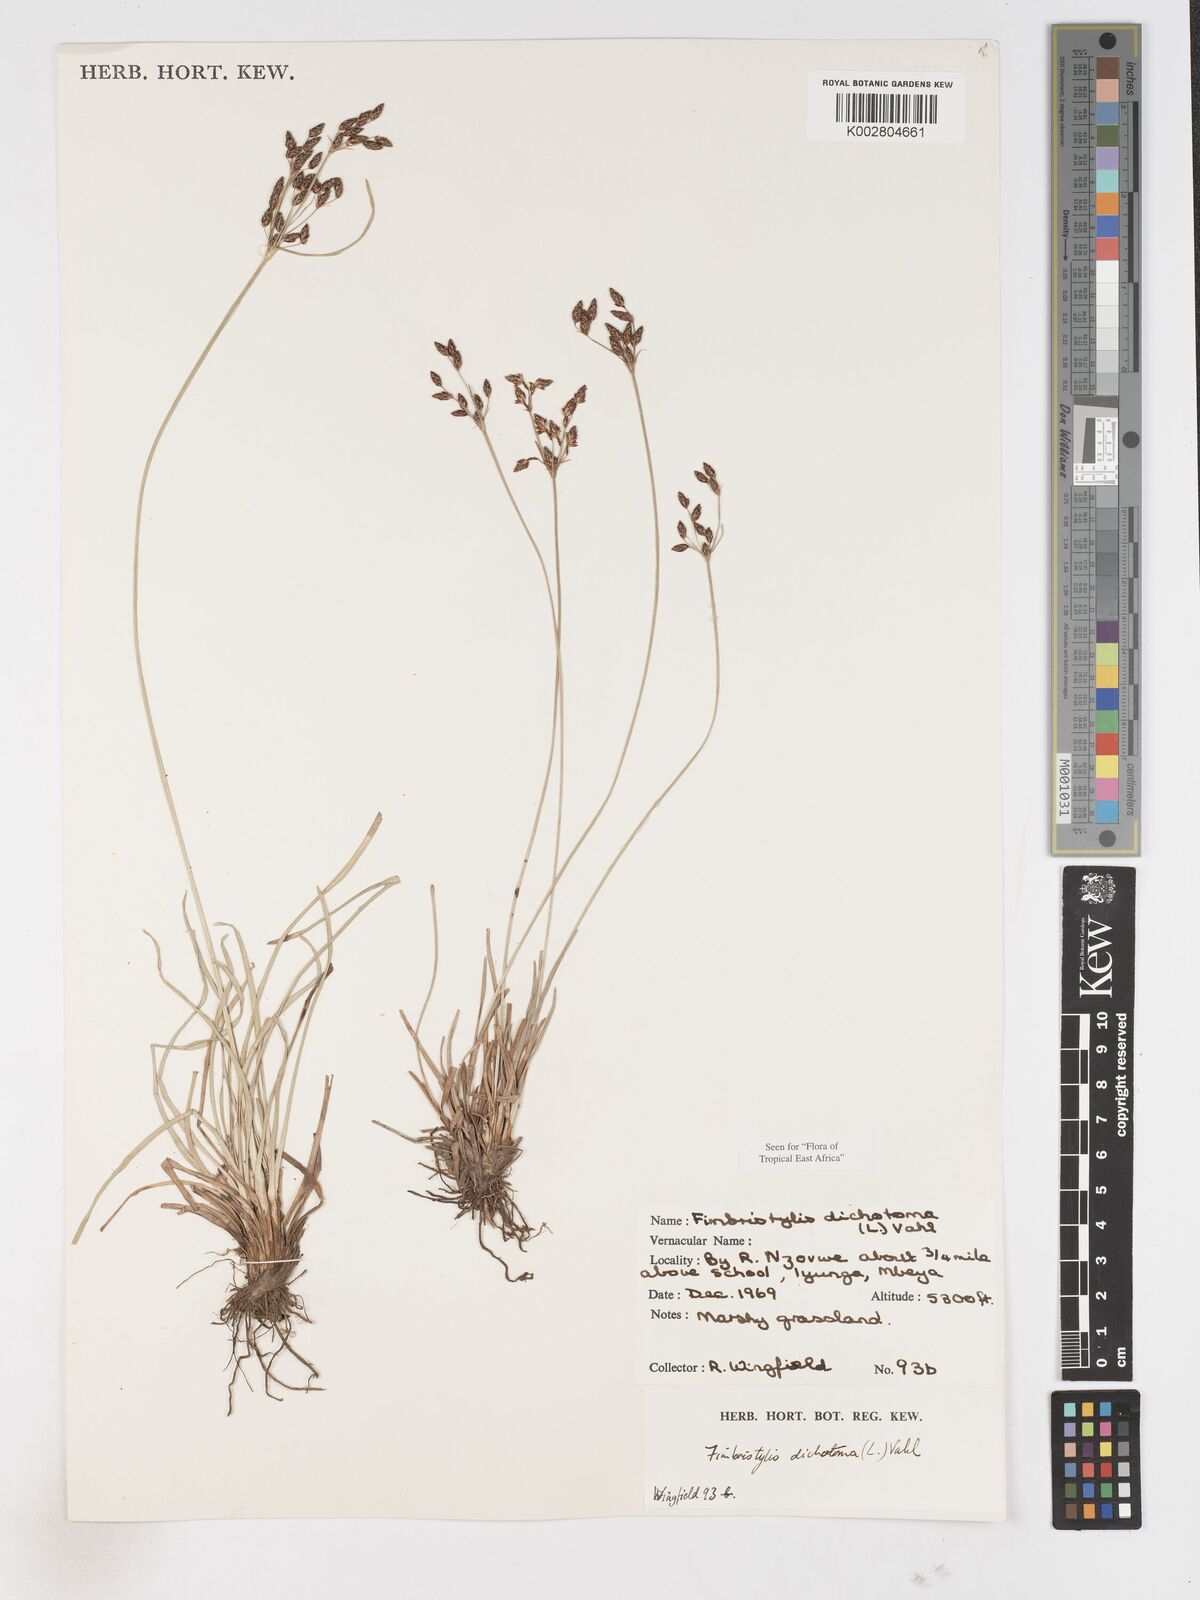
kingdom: Plantae
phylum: Tracheophyta
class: Liliopsida
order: Poales
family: Cyperaceae
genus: Fimbristylis
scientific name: Fimbristylis dichotoma
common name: Forked fimbry
